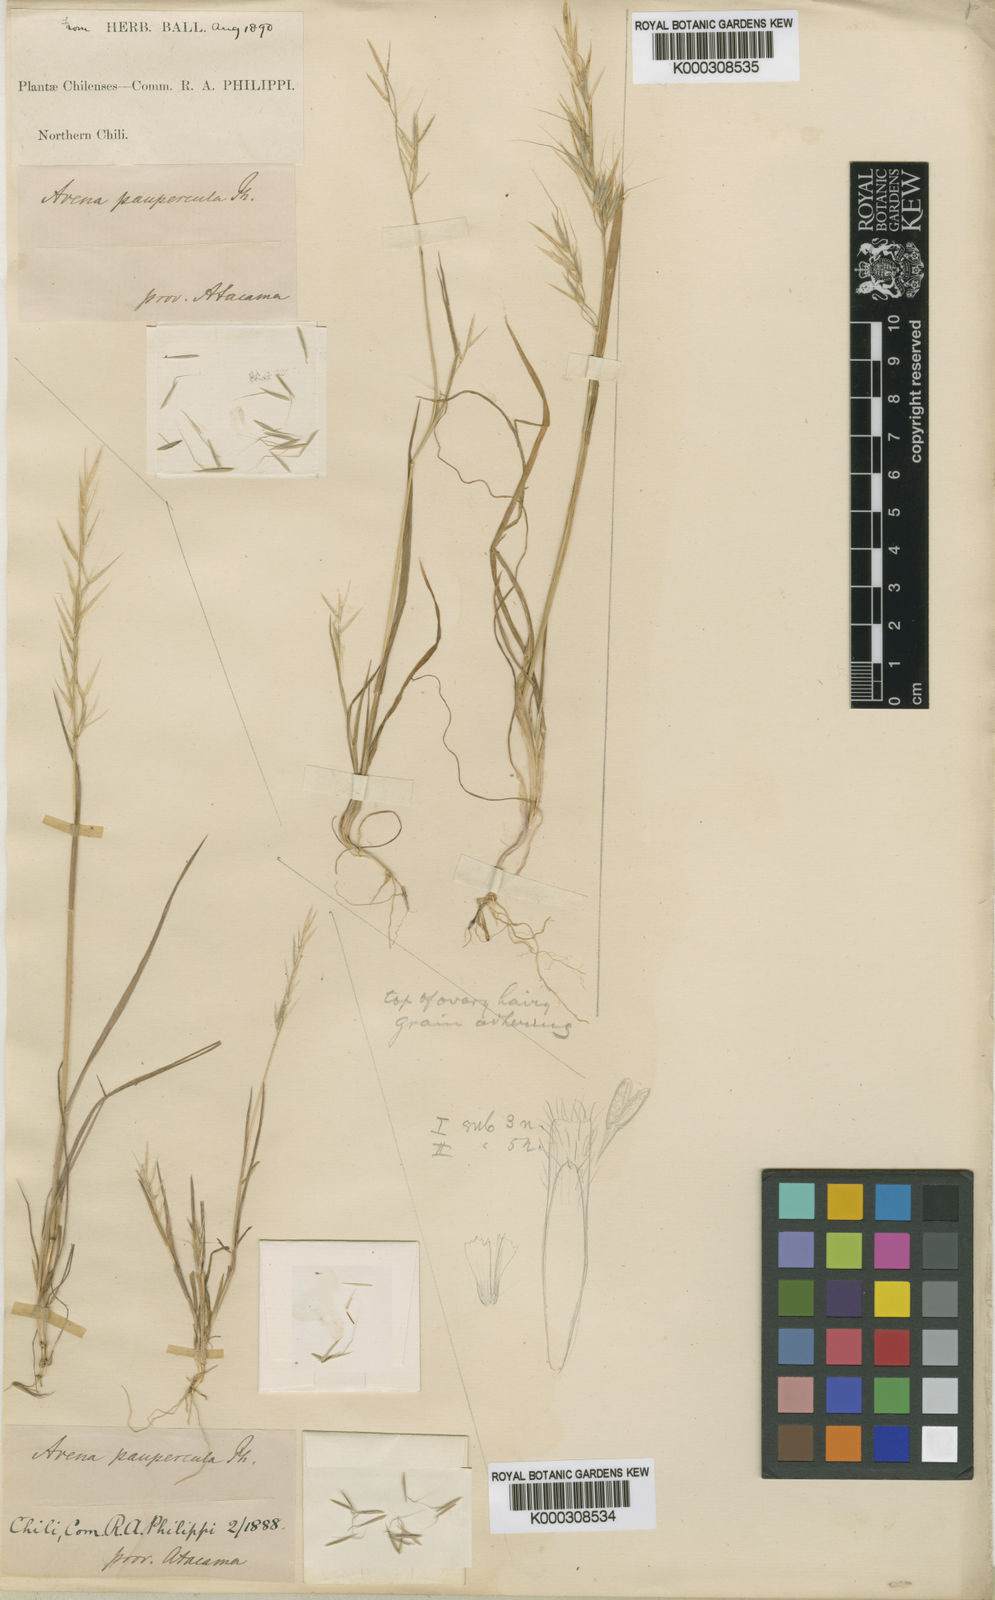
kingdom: Plantae
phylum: Tracheophyta
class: Liliopsida
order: Poales
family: Poaceae
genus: Bromus
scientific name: Bromus berteroanus
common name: Chilean chess
